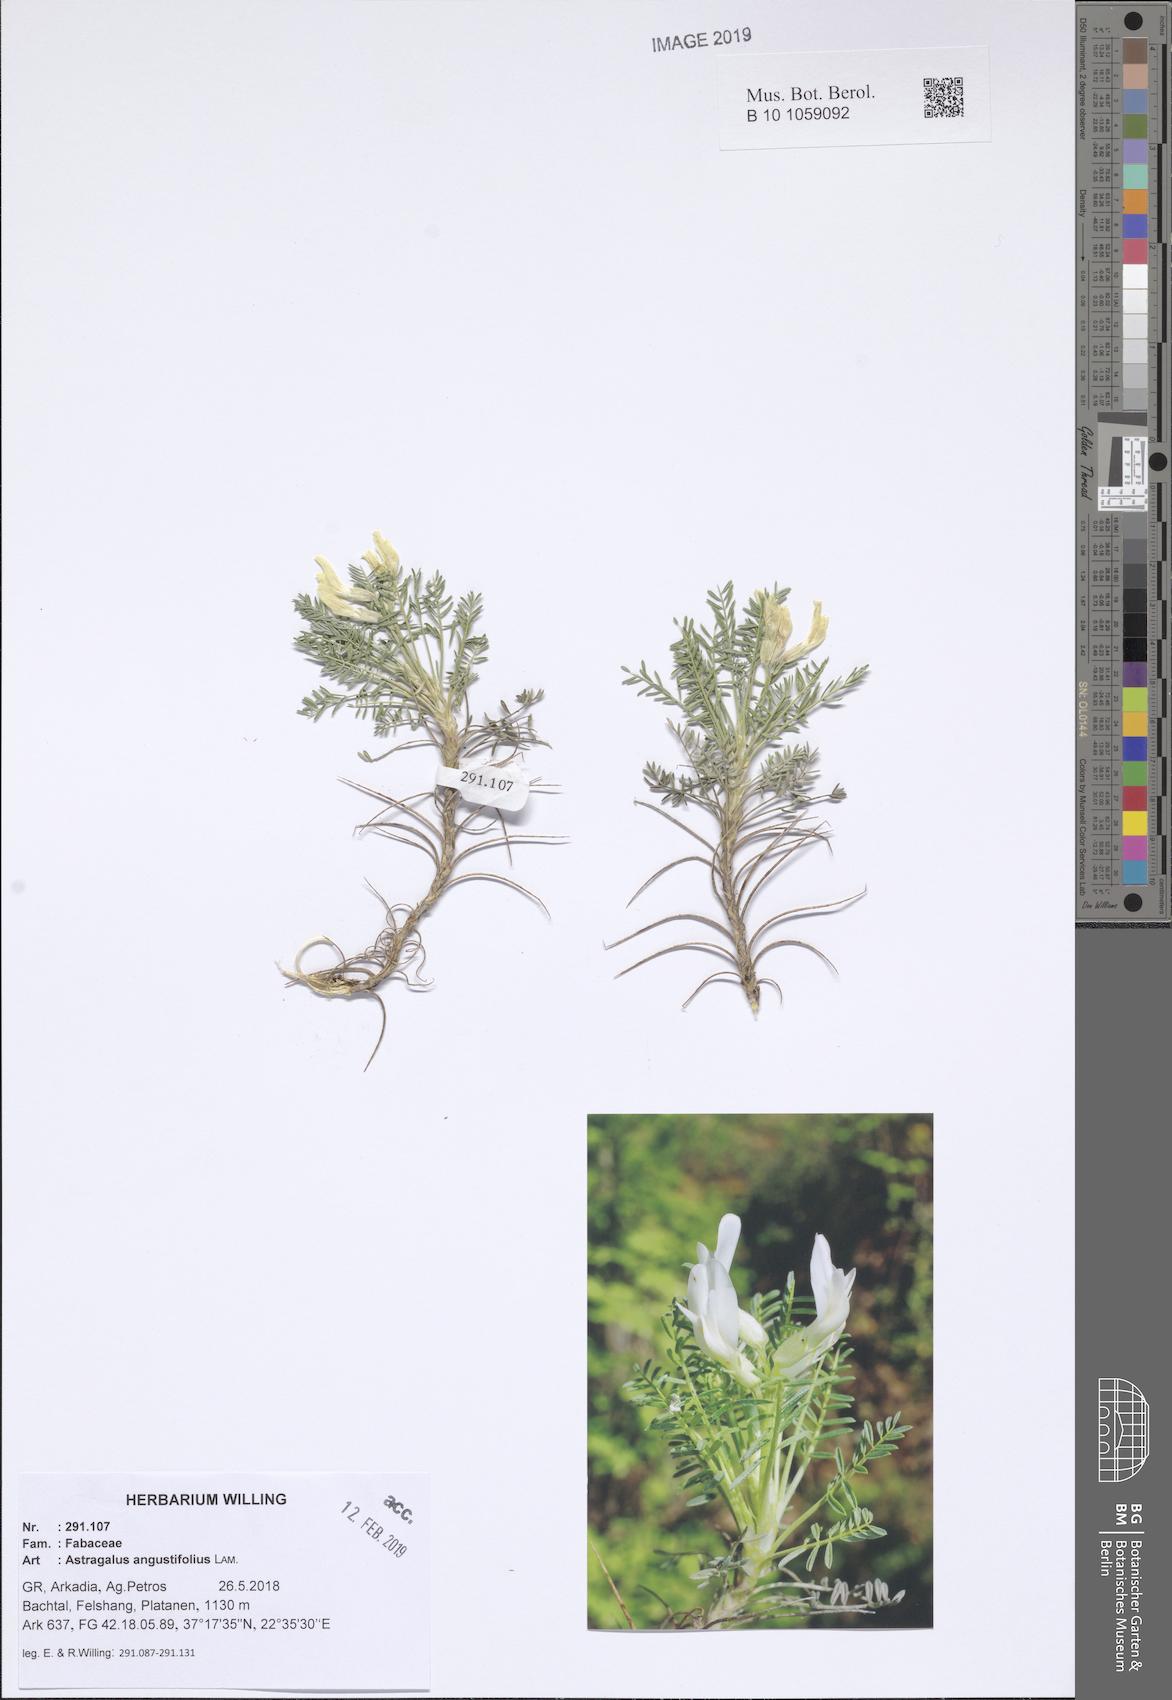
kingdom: Plantae
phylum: Tracheophyta
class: Magnoliopsida
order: Fabales
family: Fabaceae
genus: Astragalus
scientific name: Astragalus angustifolius
